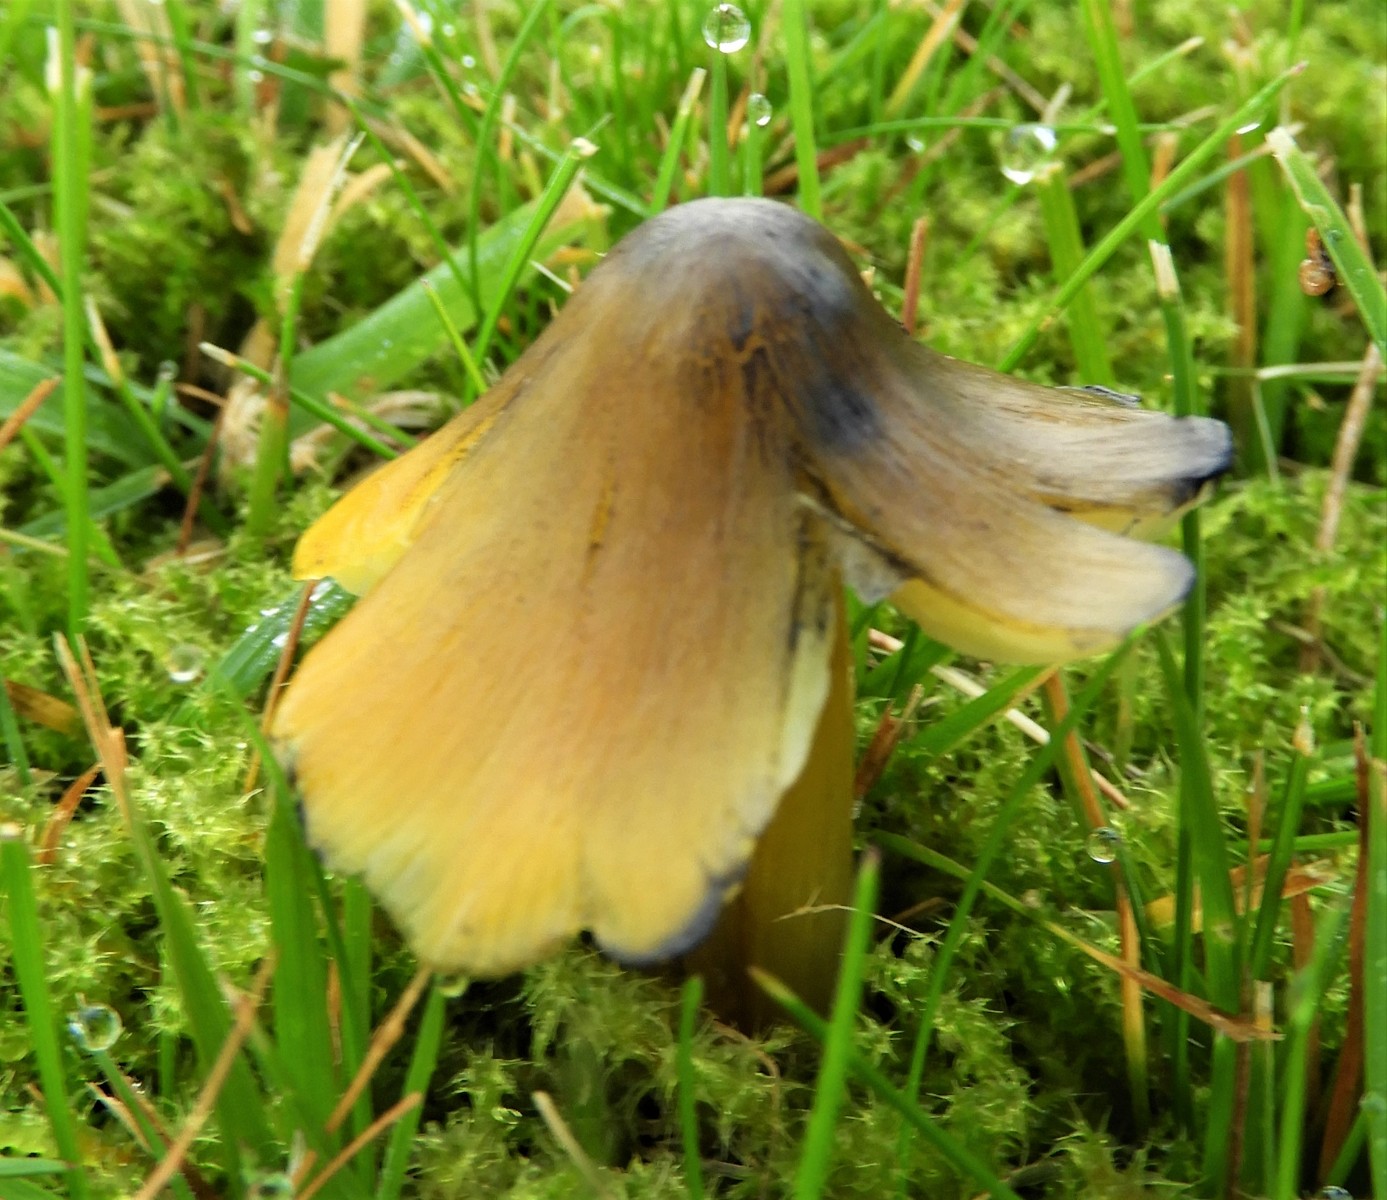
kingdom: Fungi
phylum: Basidiomycota
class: Agaricomycetes
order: Agaricales
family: Hygrophoraceae
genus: Hygrocybe
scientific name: Hygrocybe conica
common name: kegle-vokshat
